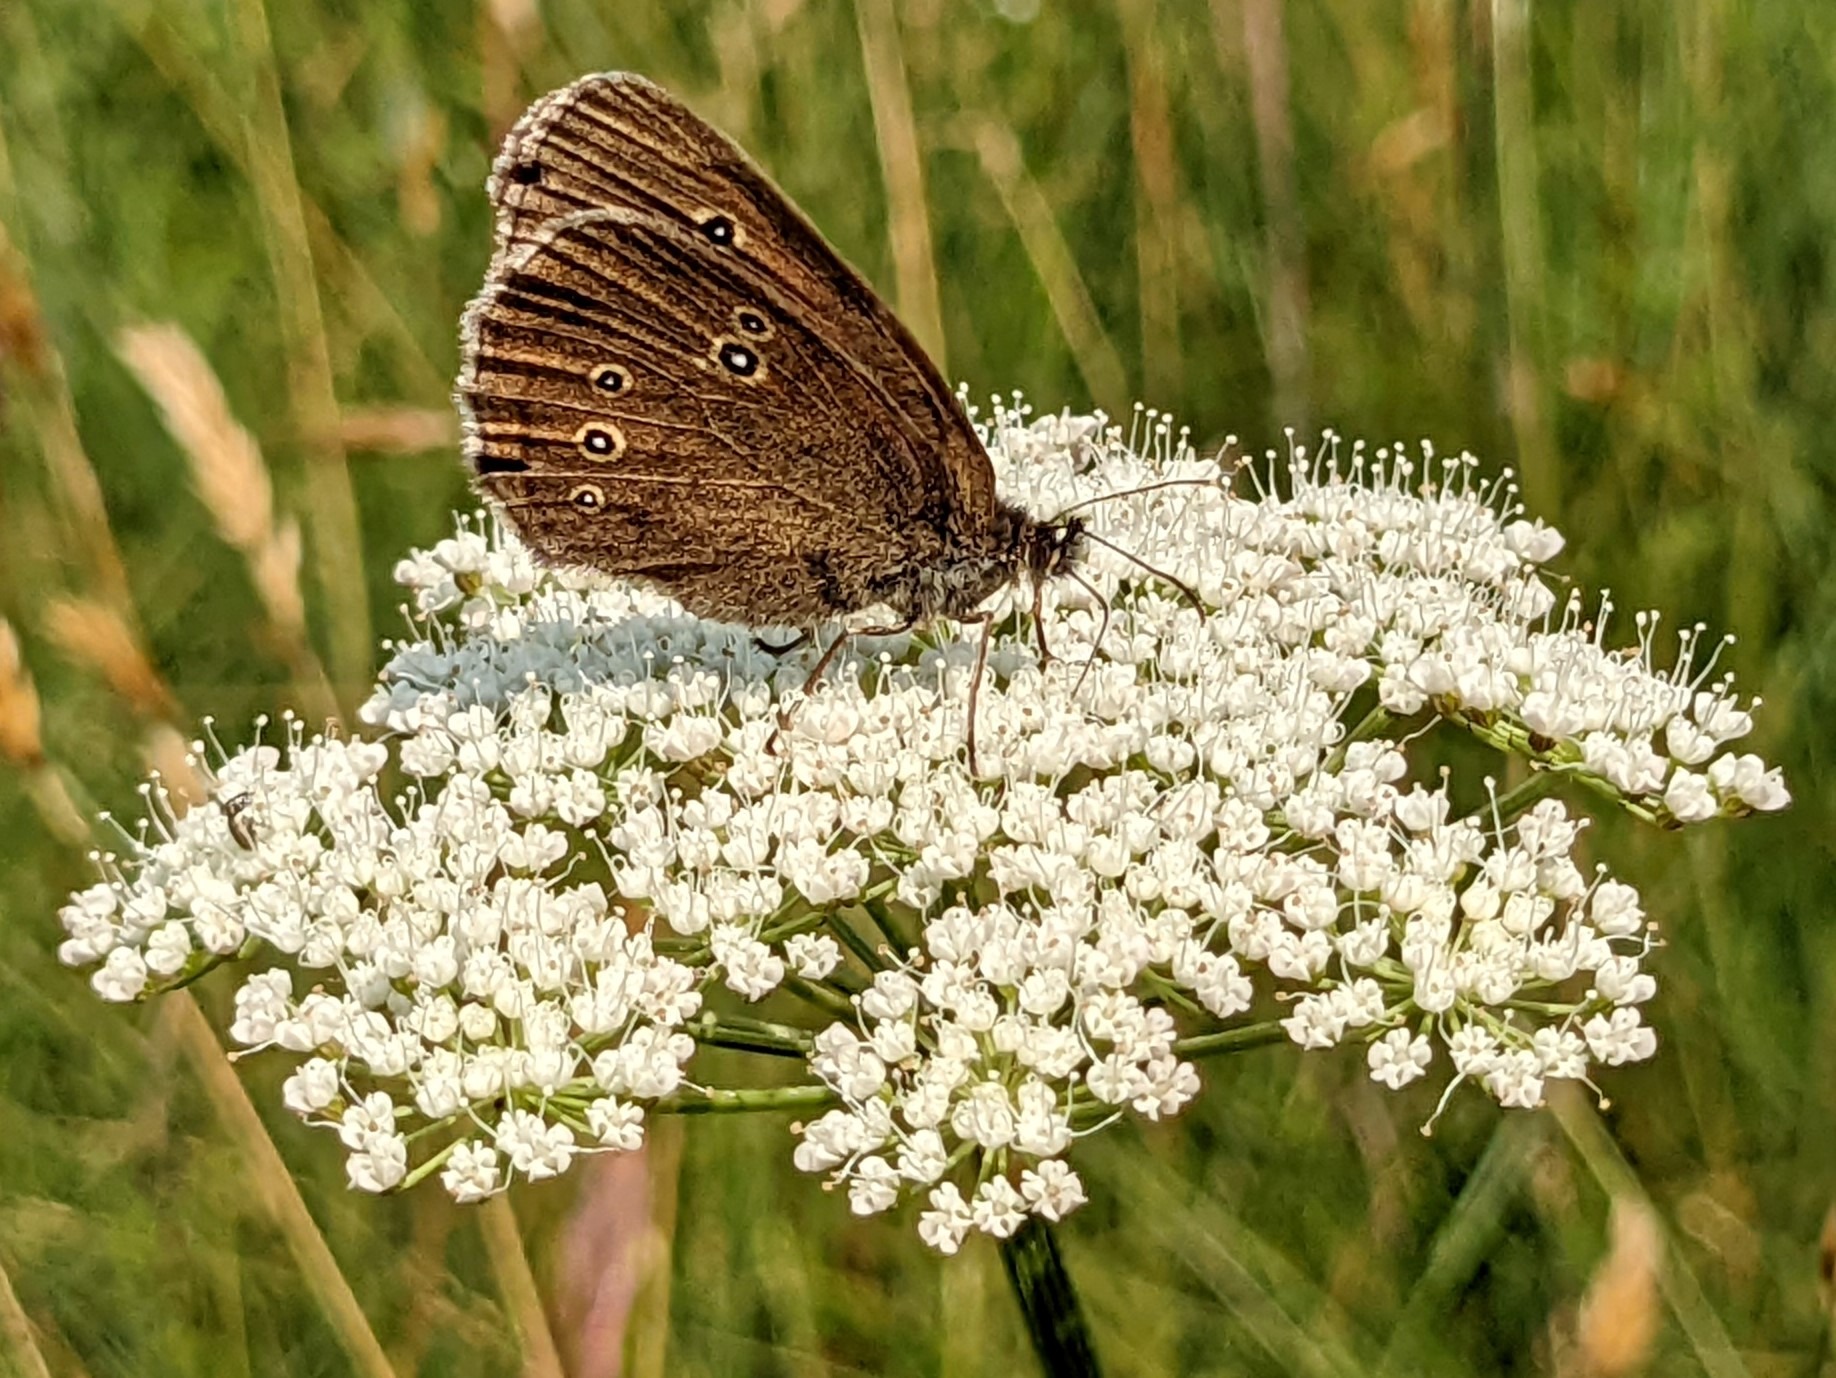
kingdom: Animalia
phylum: Arthropoda
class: Insecta
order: Lepidoptera
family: Nymphalidae
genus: Aphantopus
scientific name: Aphantopus hyperantus
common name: Engrandøje
